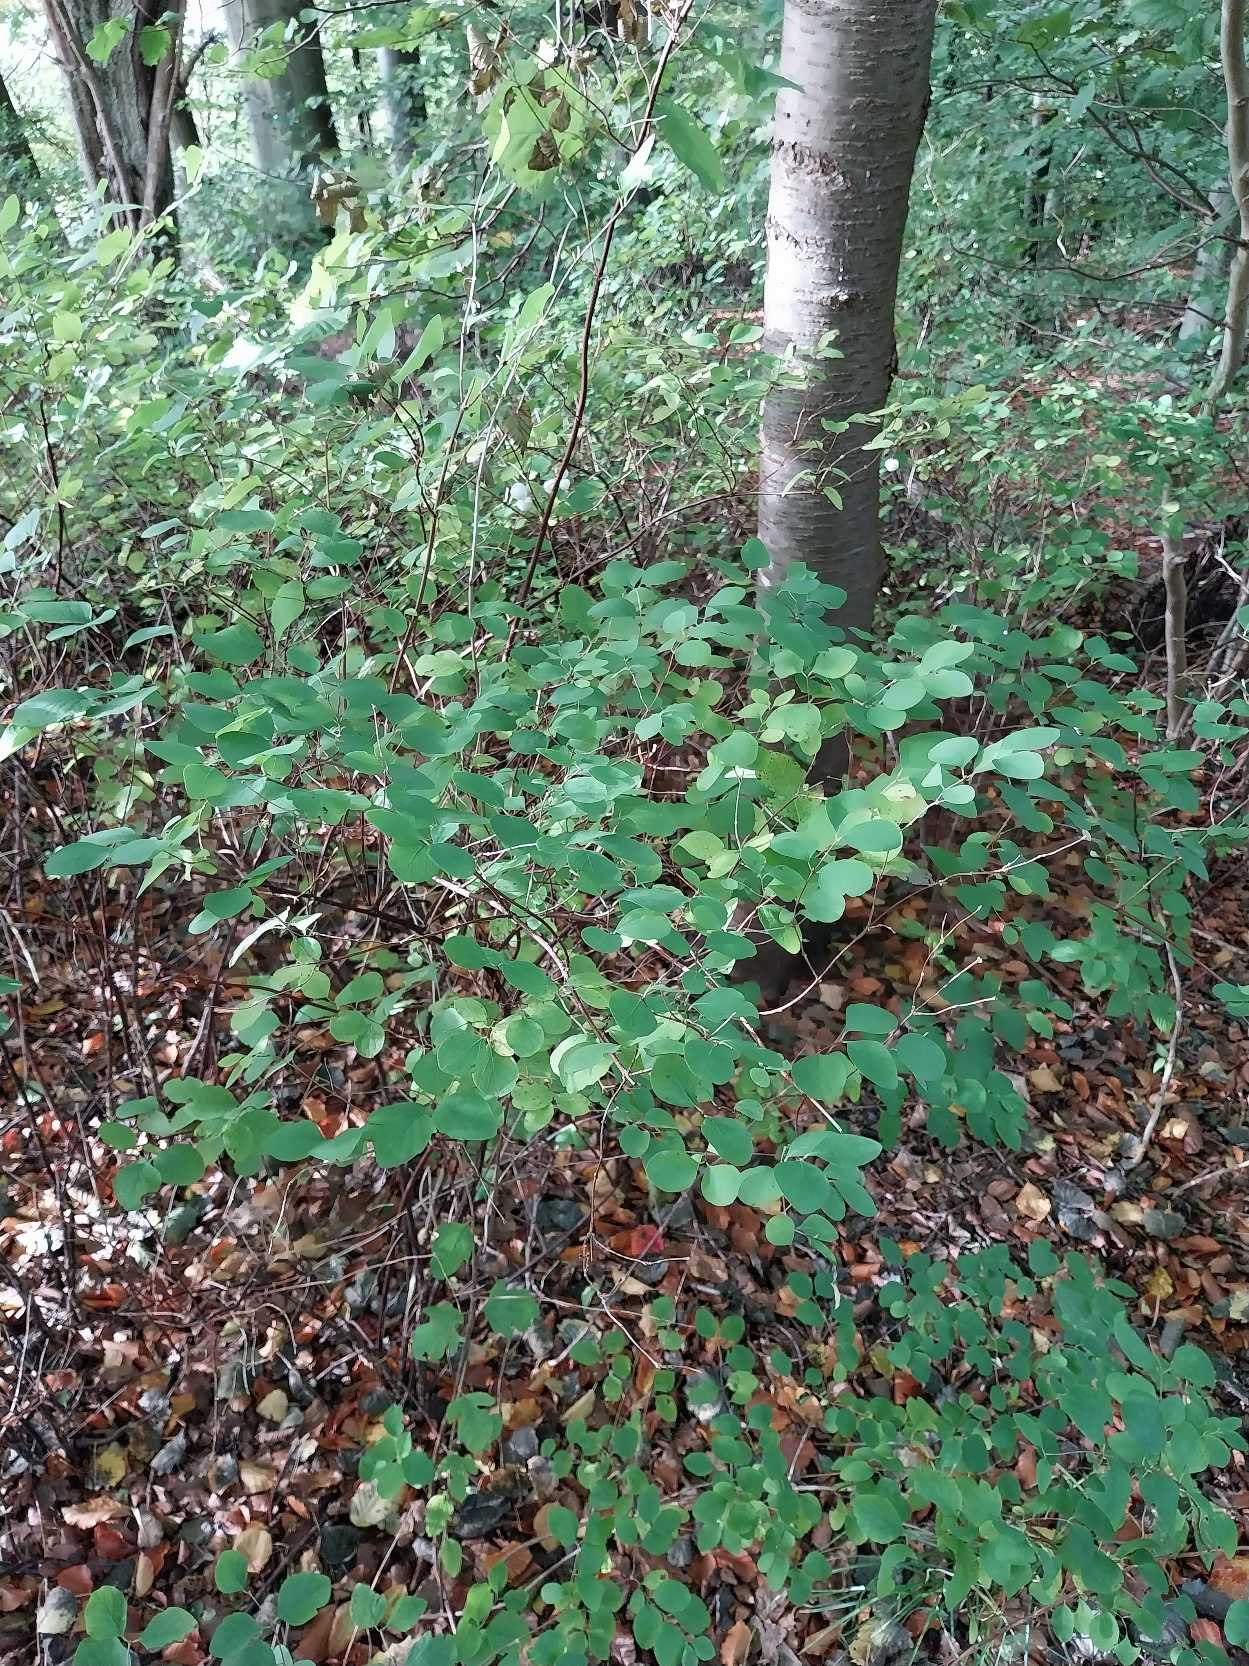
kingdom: Plantae
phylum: Tracheophyta
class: Magnoliopsida
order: Dipsacales
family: Caprifoliaceae
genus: Symphoricarpos
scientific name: Symphoricarpos albus
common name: Almindelig snebær
